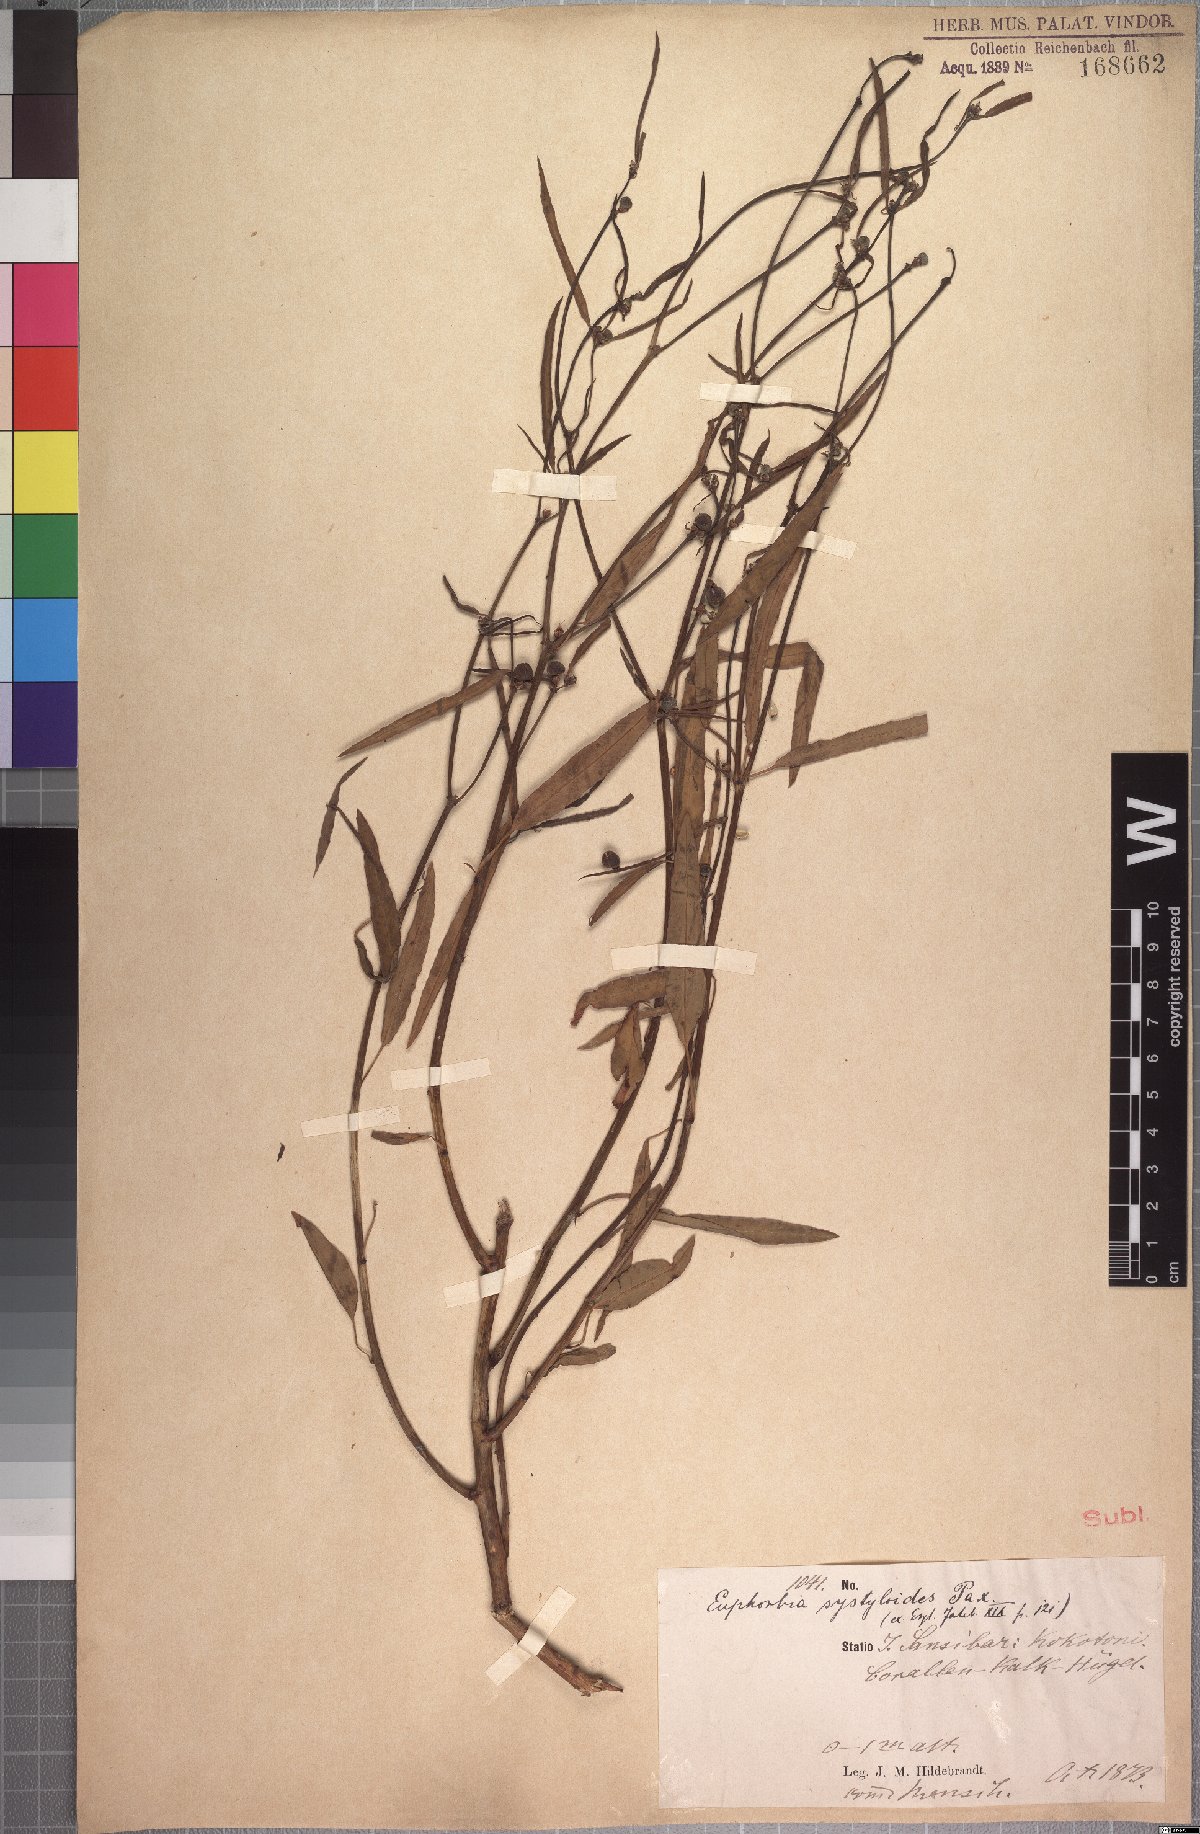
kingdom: Plantae
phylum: Tracheophyta
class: Magnoliopsida
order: Malpighiales
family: Euphorbiaceae
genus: Euphorbia
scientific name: Euphorbia systyloides
